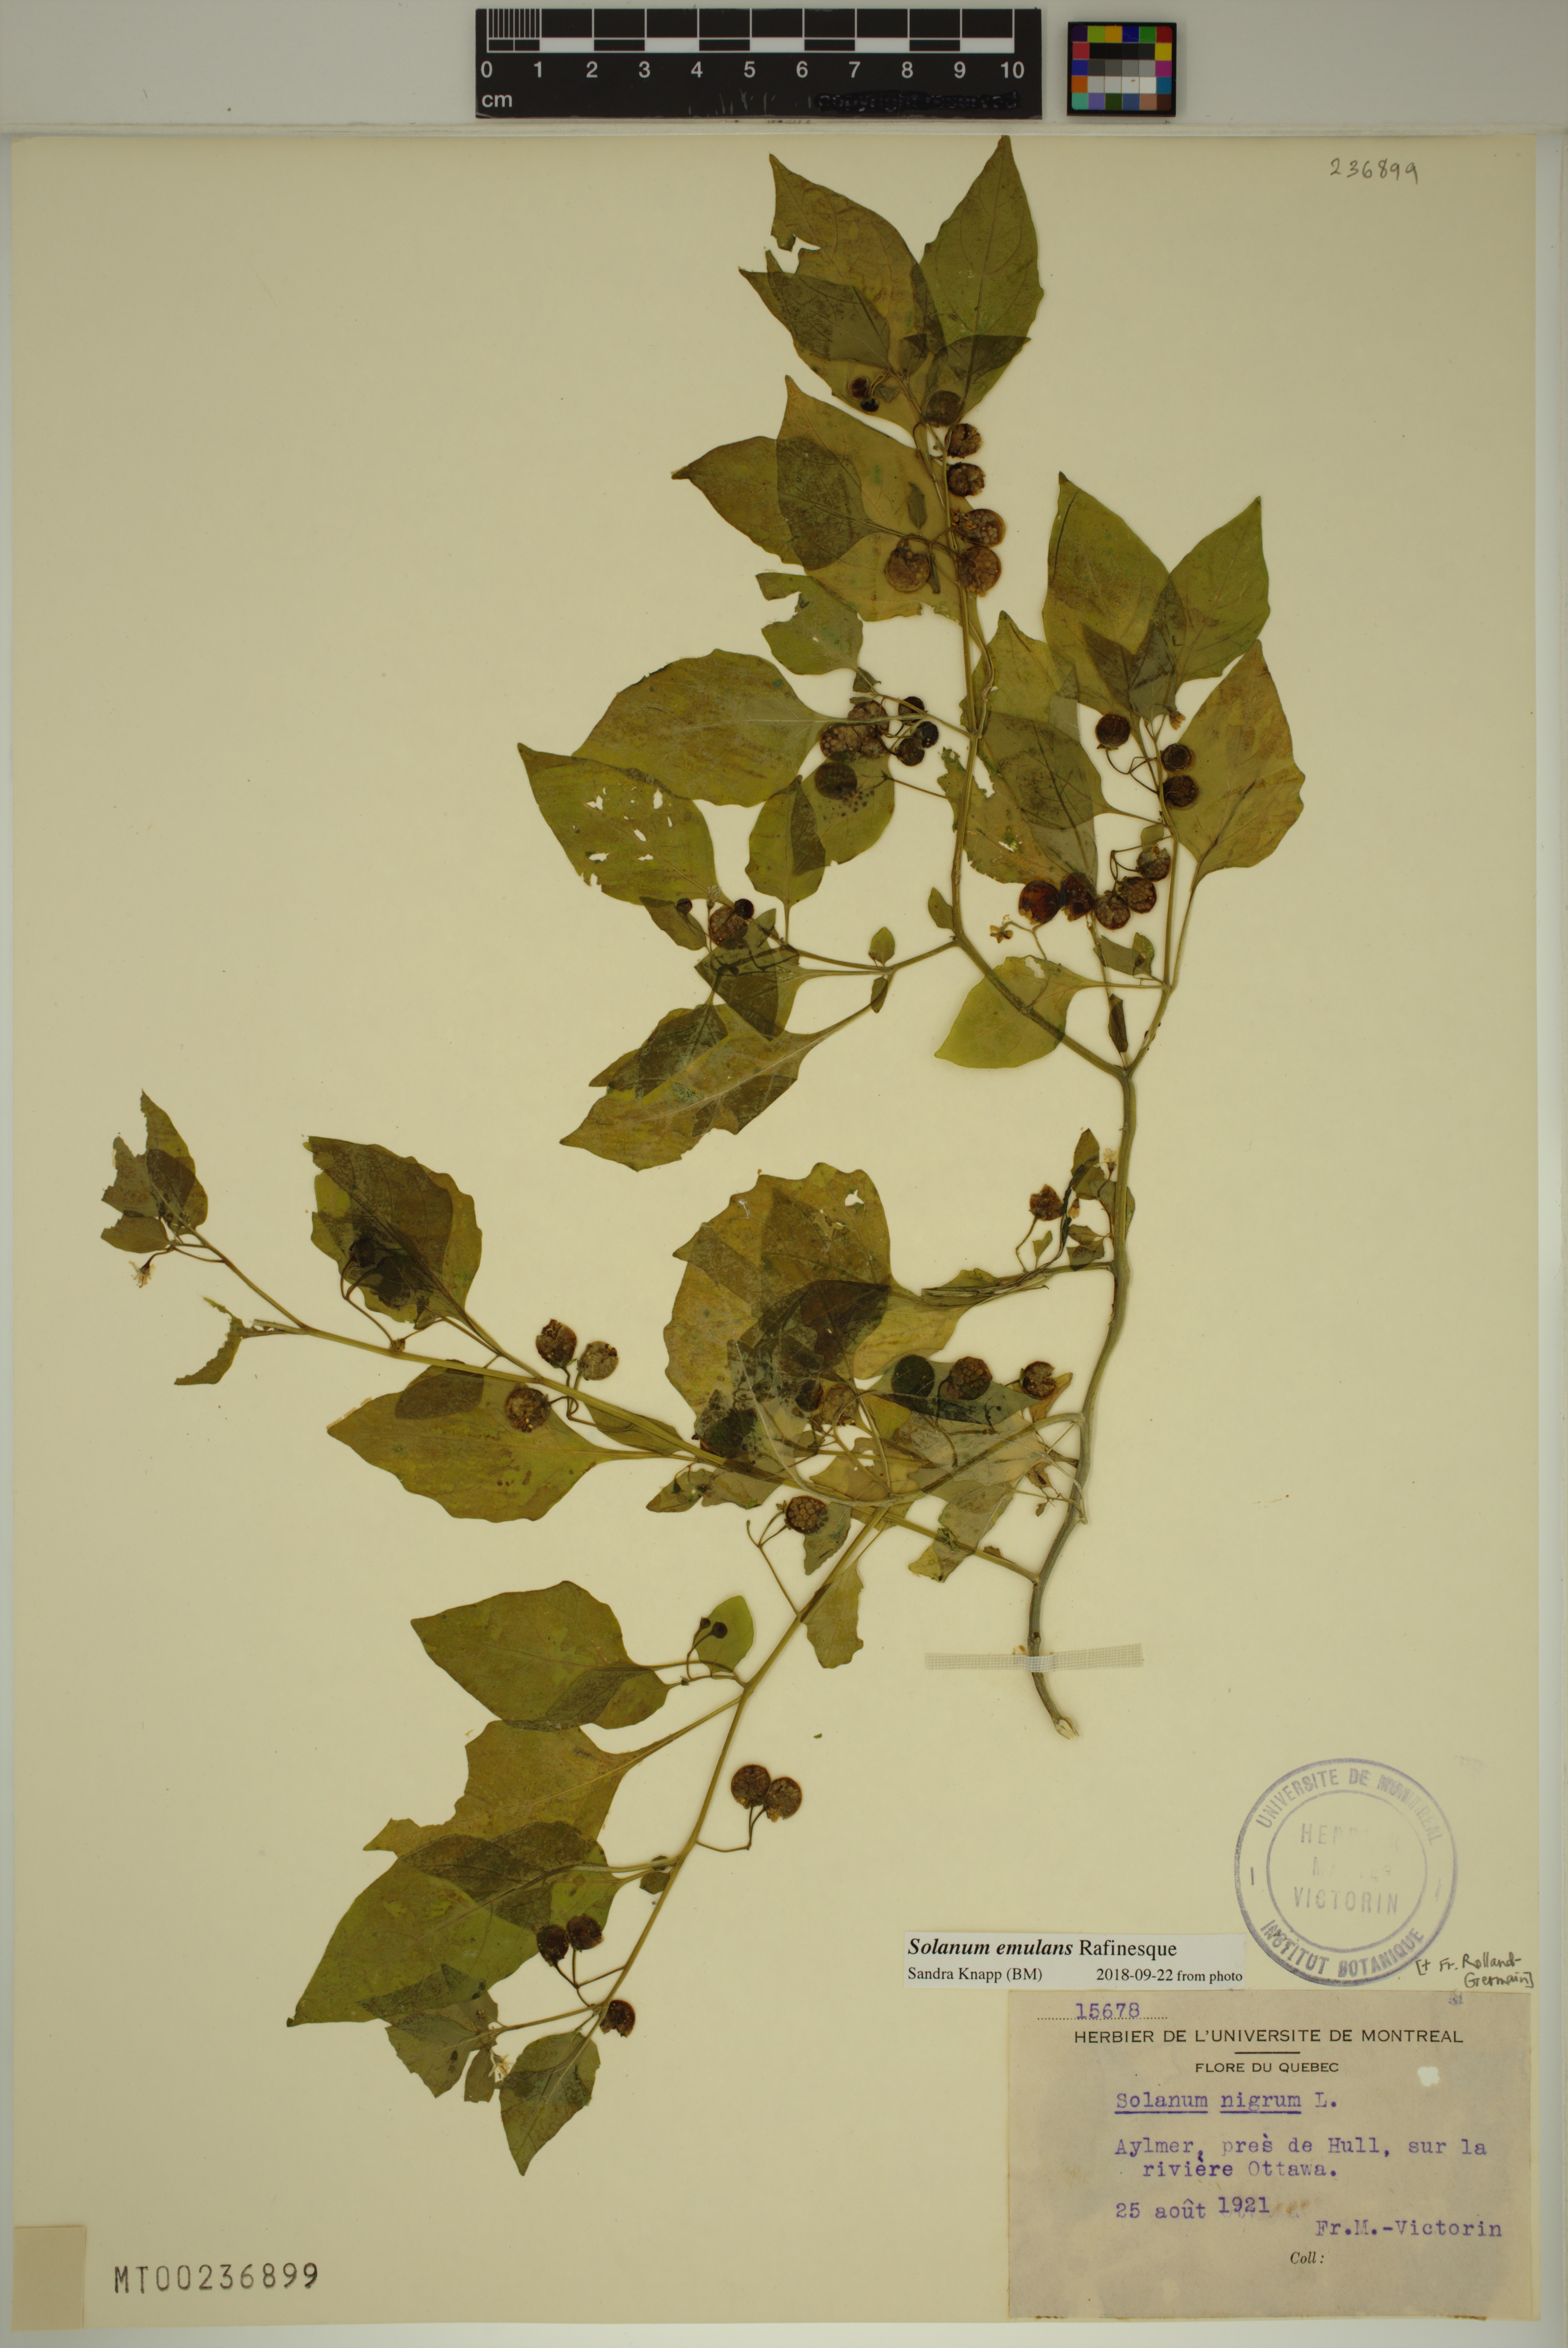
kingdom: Plantae
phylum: Tracheophyta
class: Magnoliopsida
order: Solanales
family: Solanaceae
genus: Solanum
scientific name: Solanum emulans
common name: Eastern black nightshade
